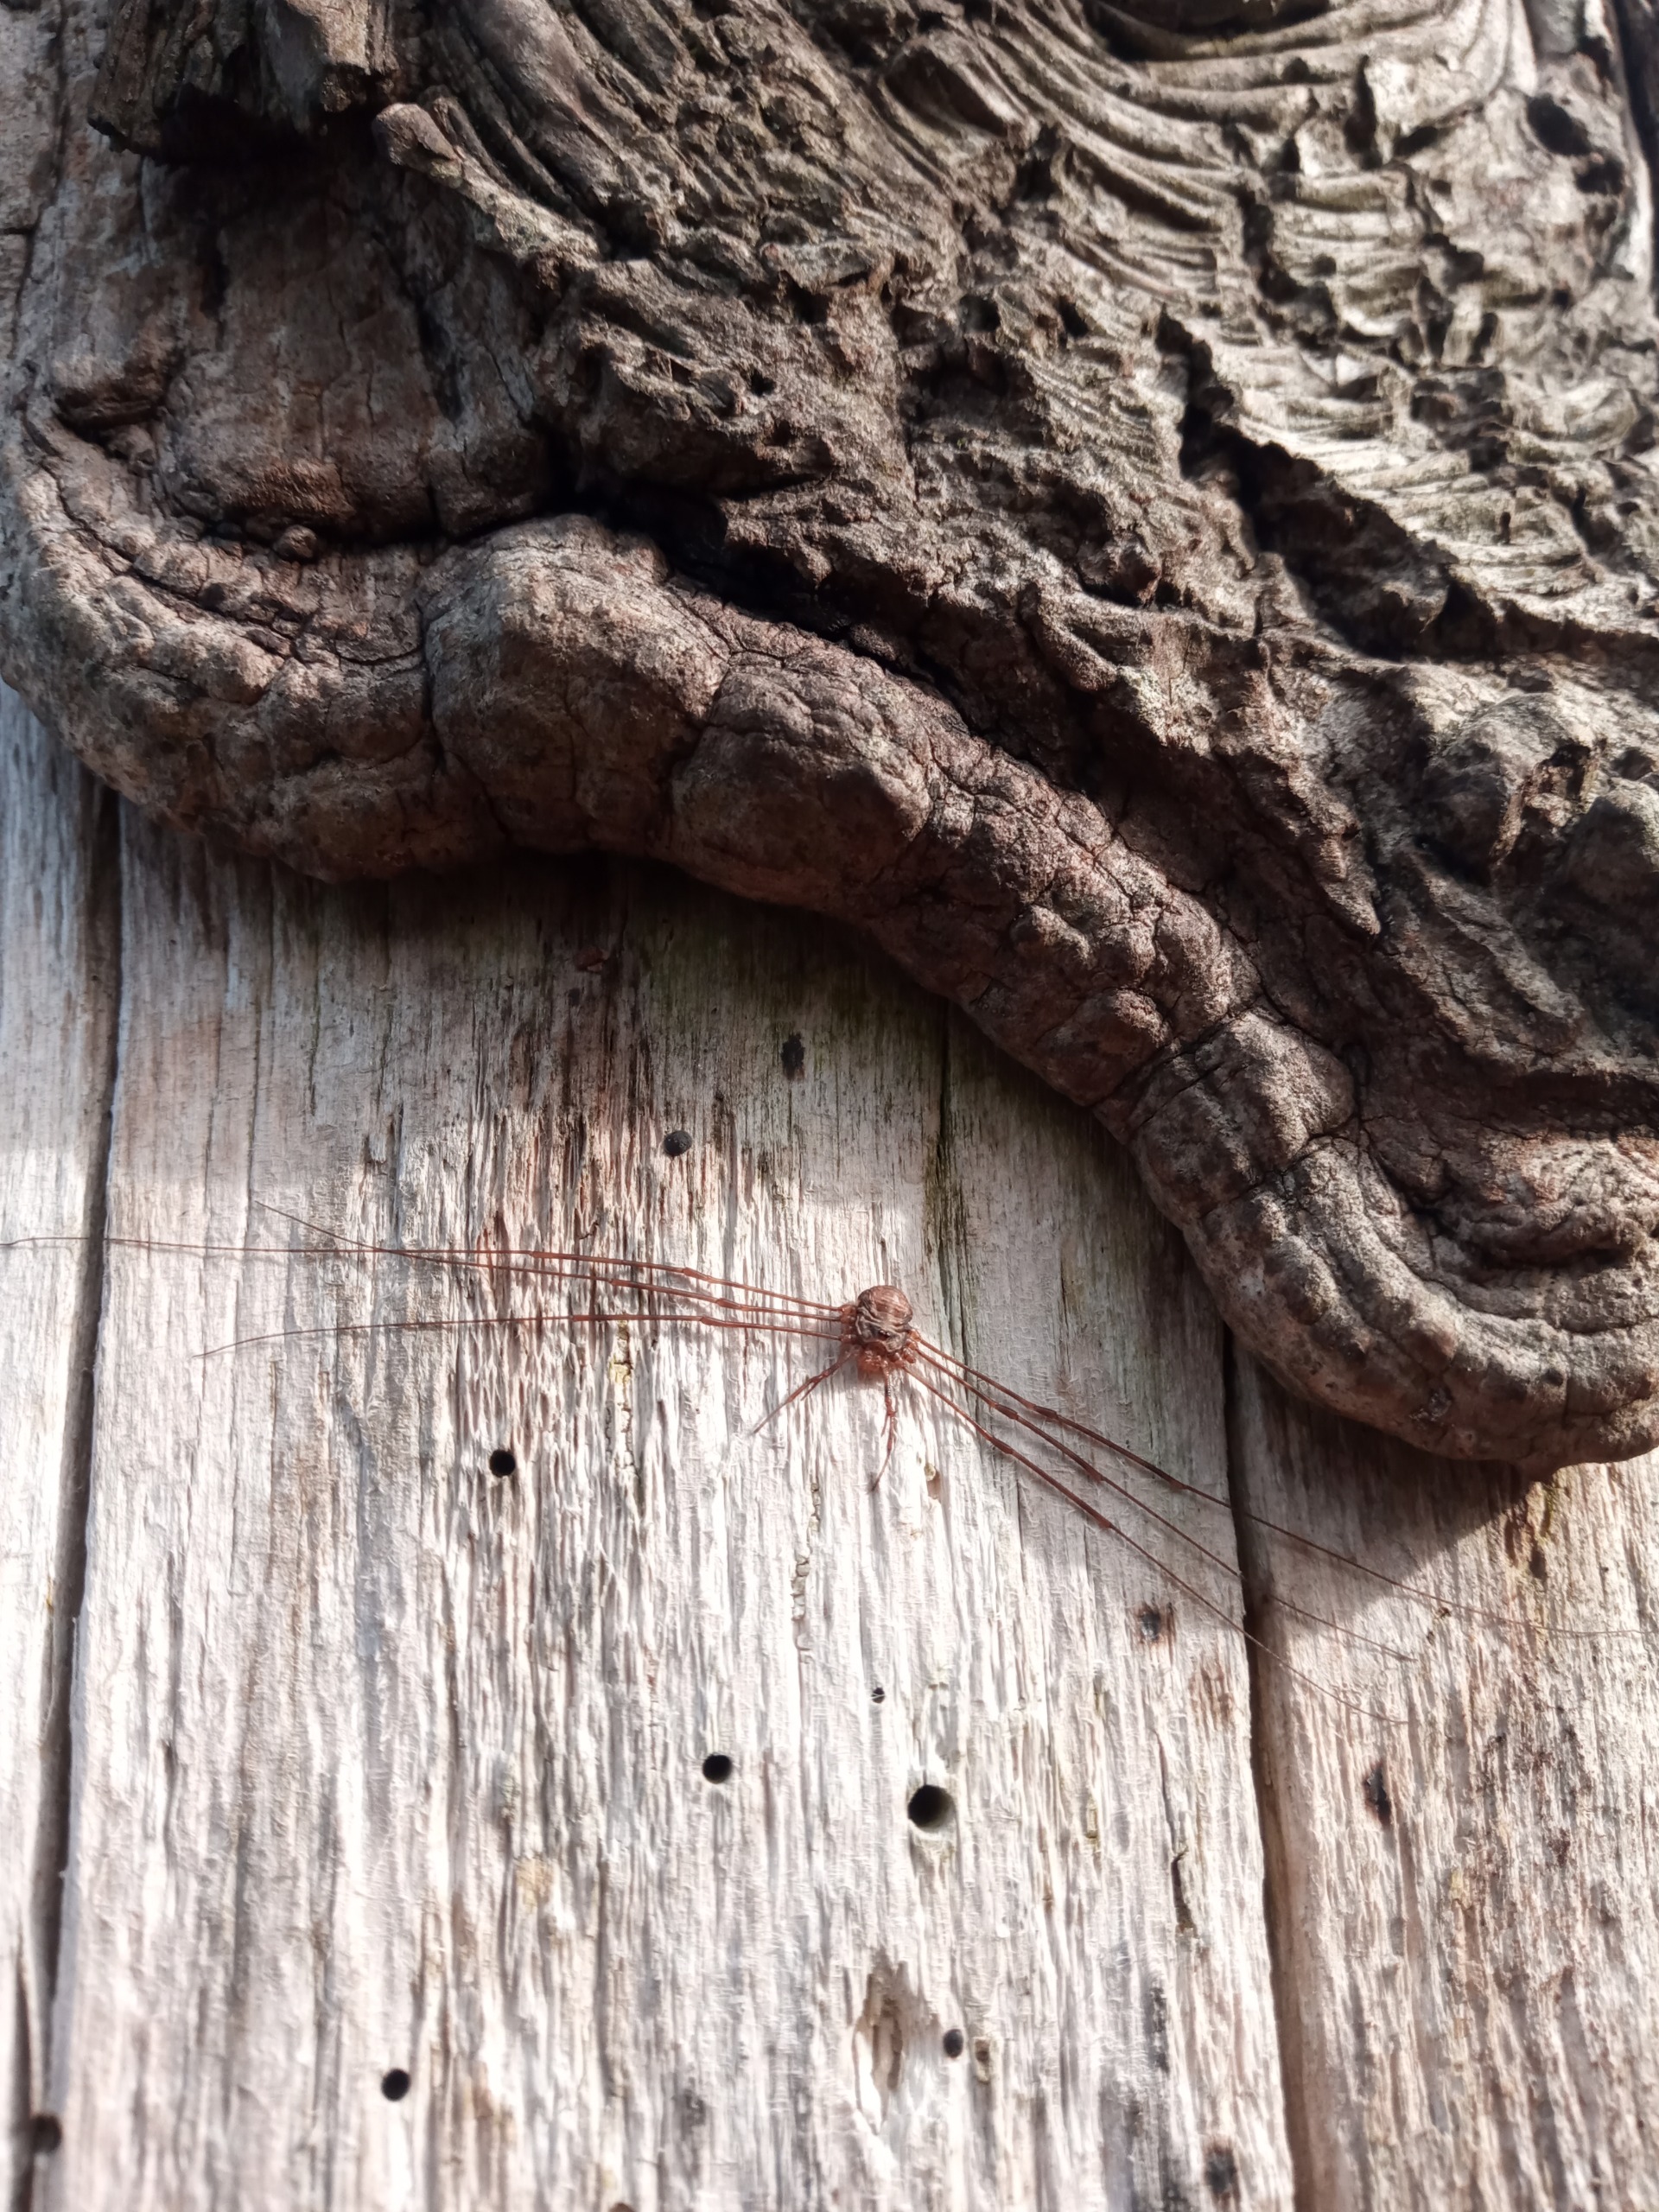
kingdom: Animalia
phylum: Arthropoda
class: Arachnida
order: Opiliones
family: Phalangiidae
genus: Dicranopalpus
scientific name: Dicranopalpus ramosus
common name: Gaffelmejer
